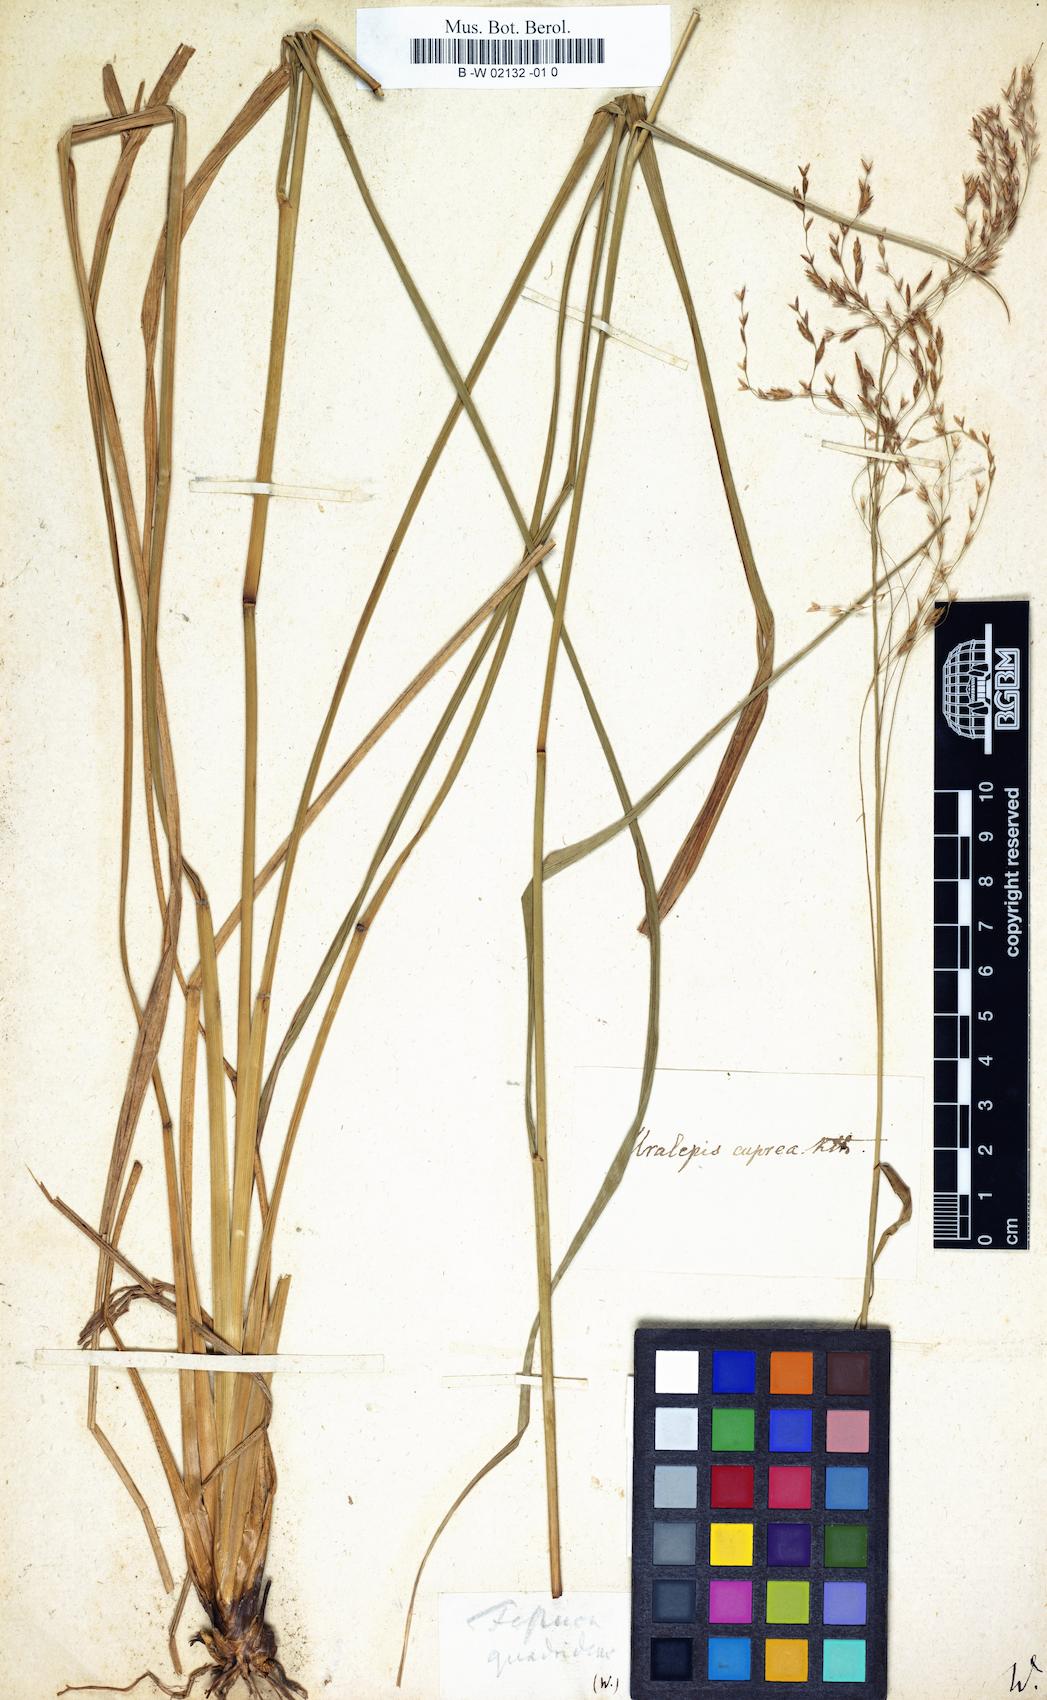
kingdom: Plantae
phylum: Tracheophyta
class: Liliopsida
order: Poales
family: Poaceae
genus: Tridens
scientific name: Tridens flavus
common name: Purpletop
